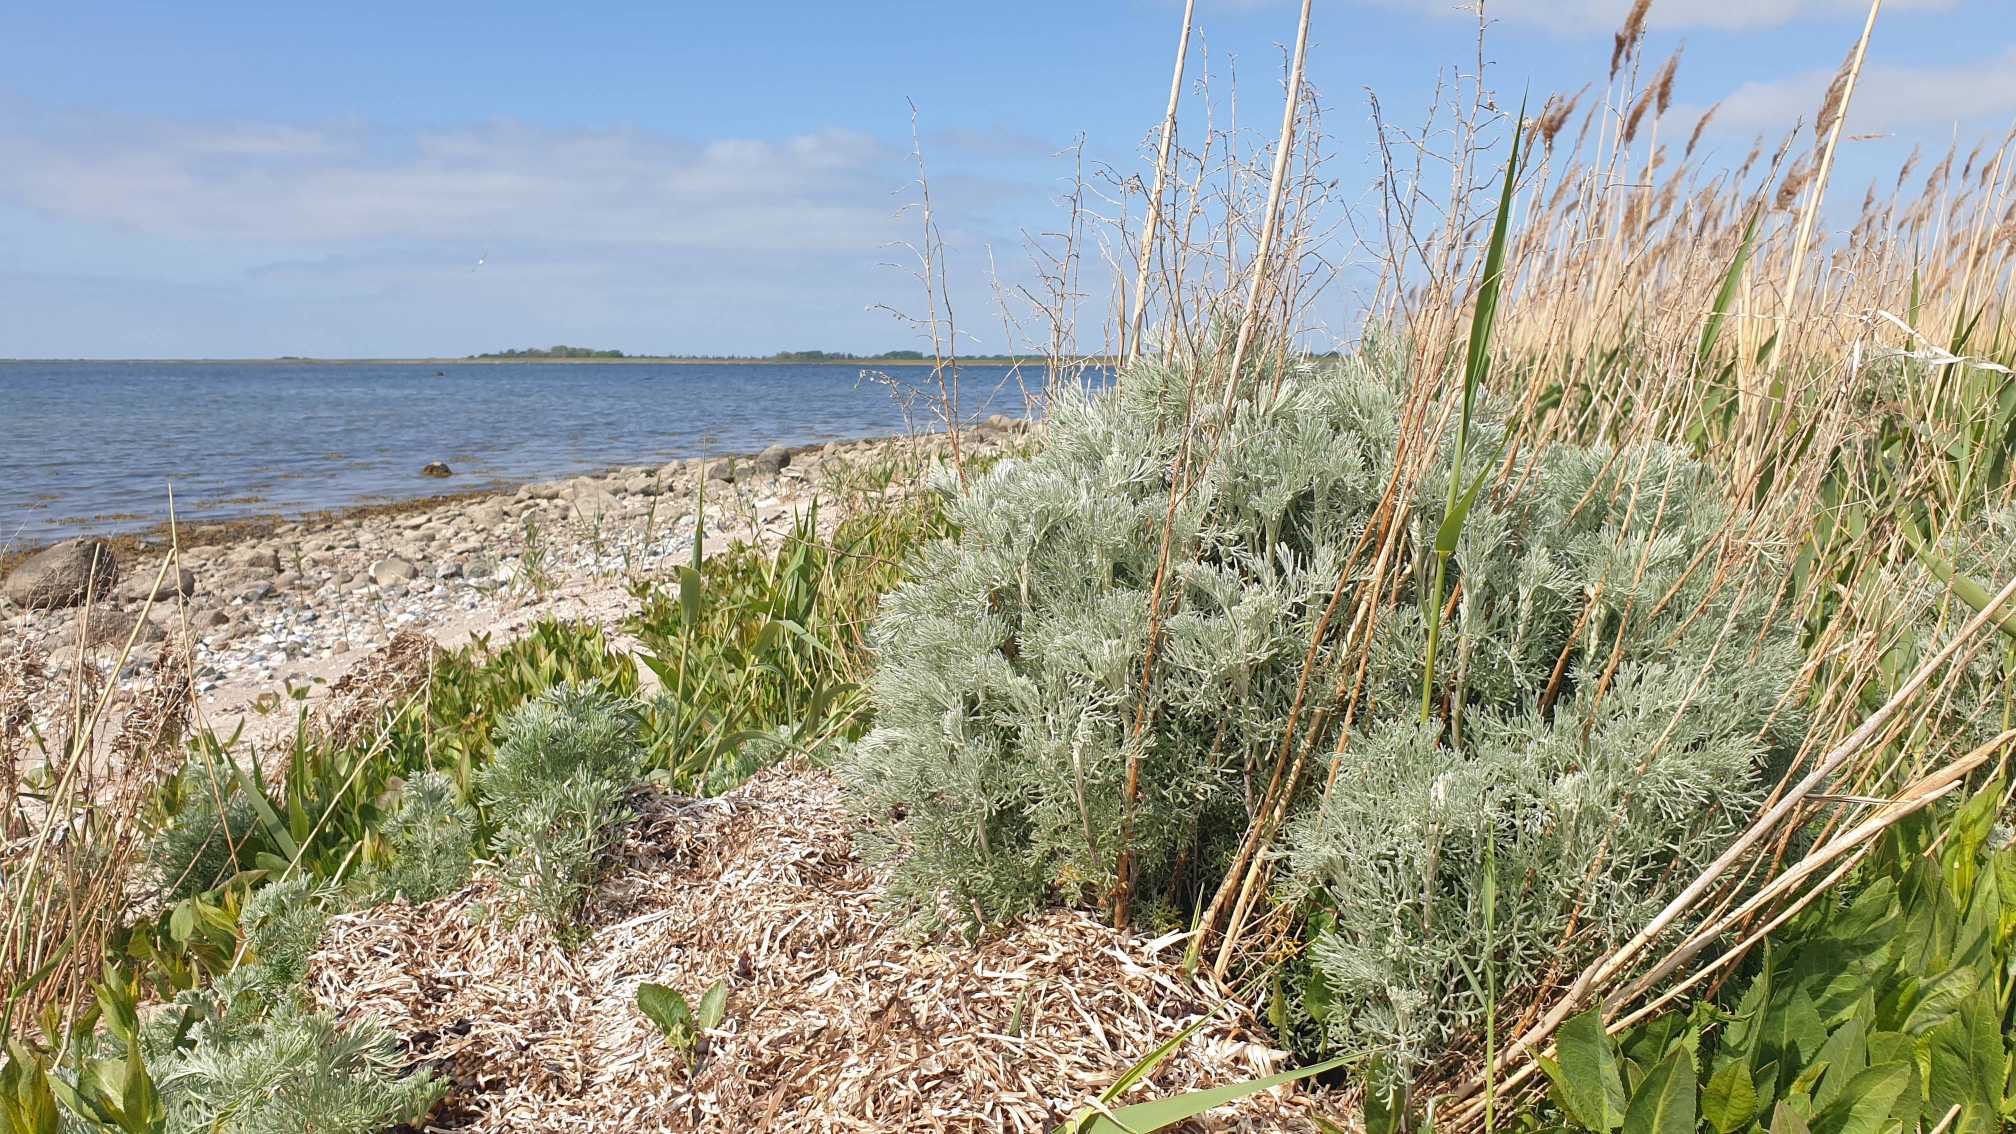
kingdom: Plantae
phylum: Tracheophyta
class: Magnoliopsida
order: Asterales
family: Asteraceae
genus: Artemisia
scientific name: Artemisia maritima
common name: Strandmalurt
